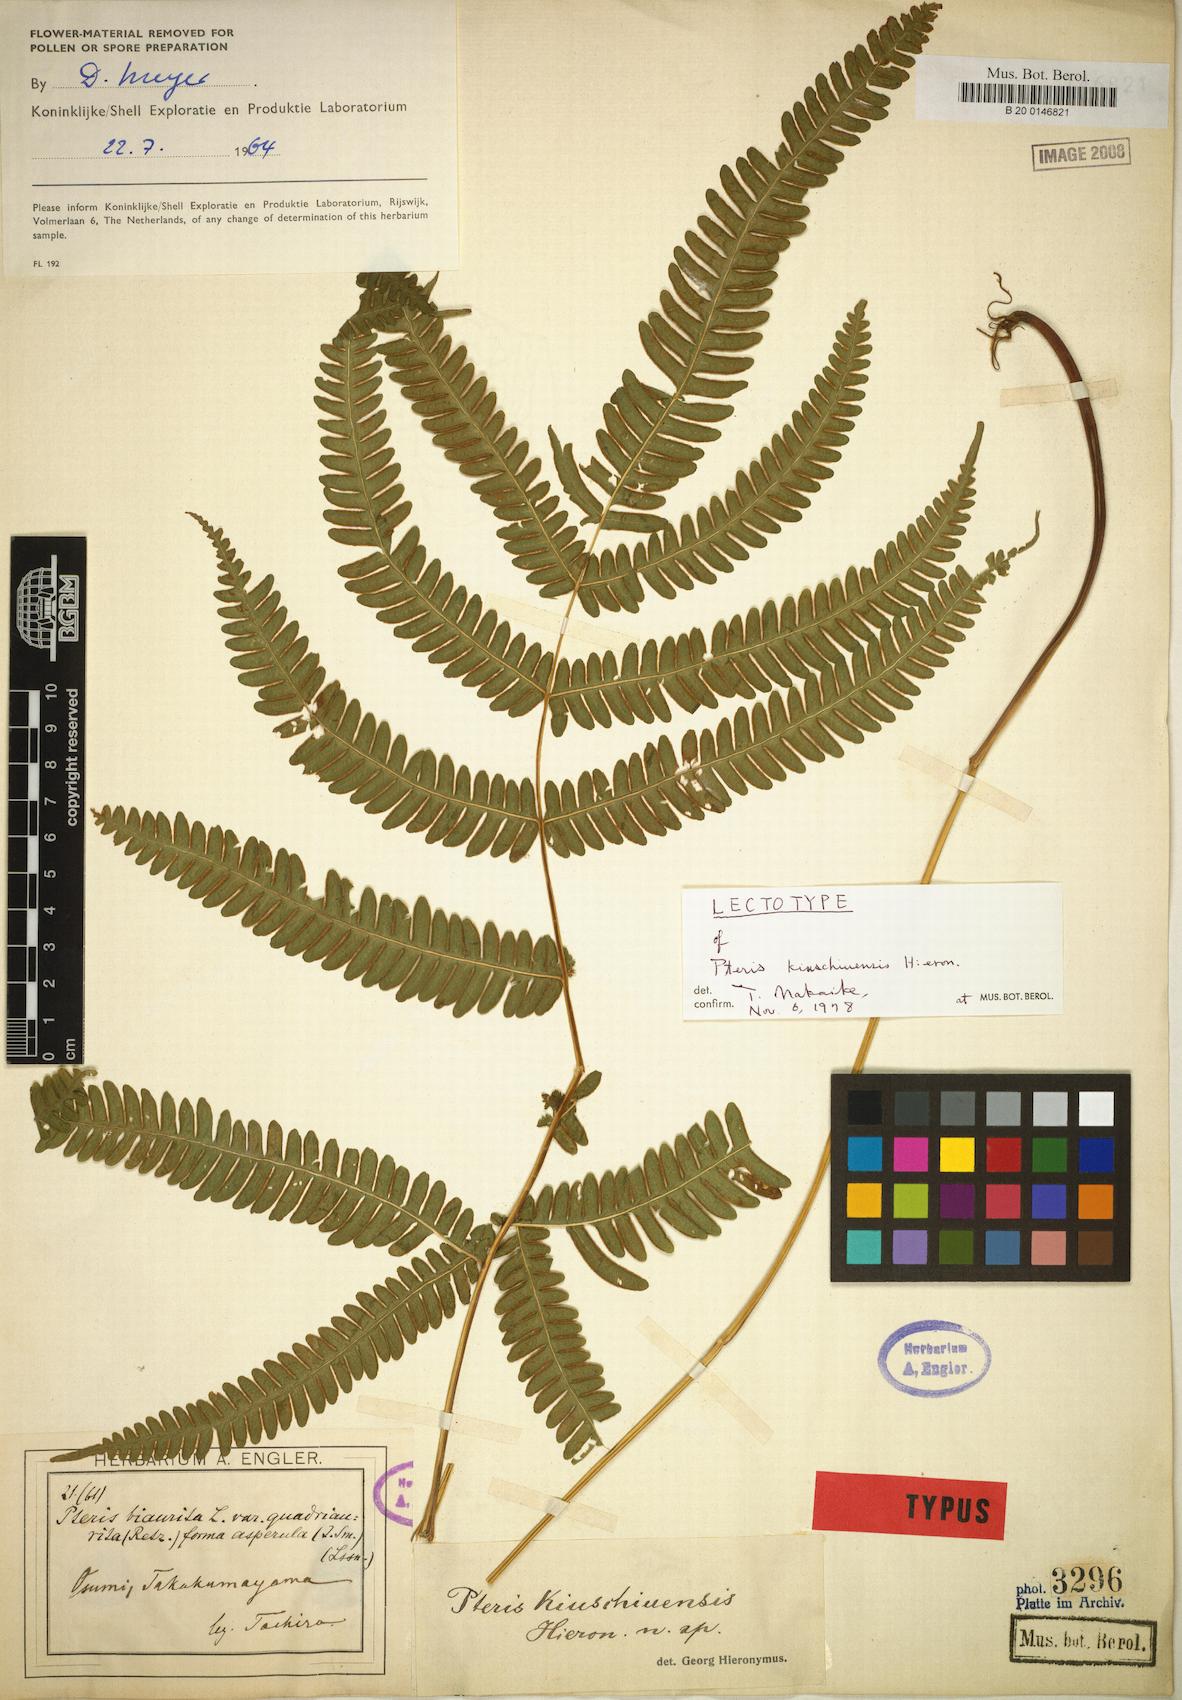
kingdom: Plantae
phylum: Tracheophyta
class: Polypodiopsida
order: Polypodiales
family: Pteridaceae
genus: Pteris
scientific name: Pteris kiuschiuensis
